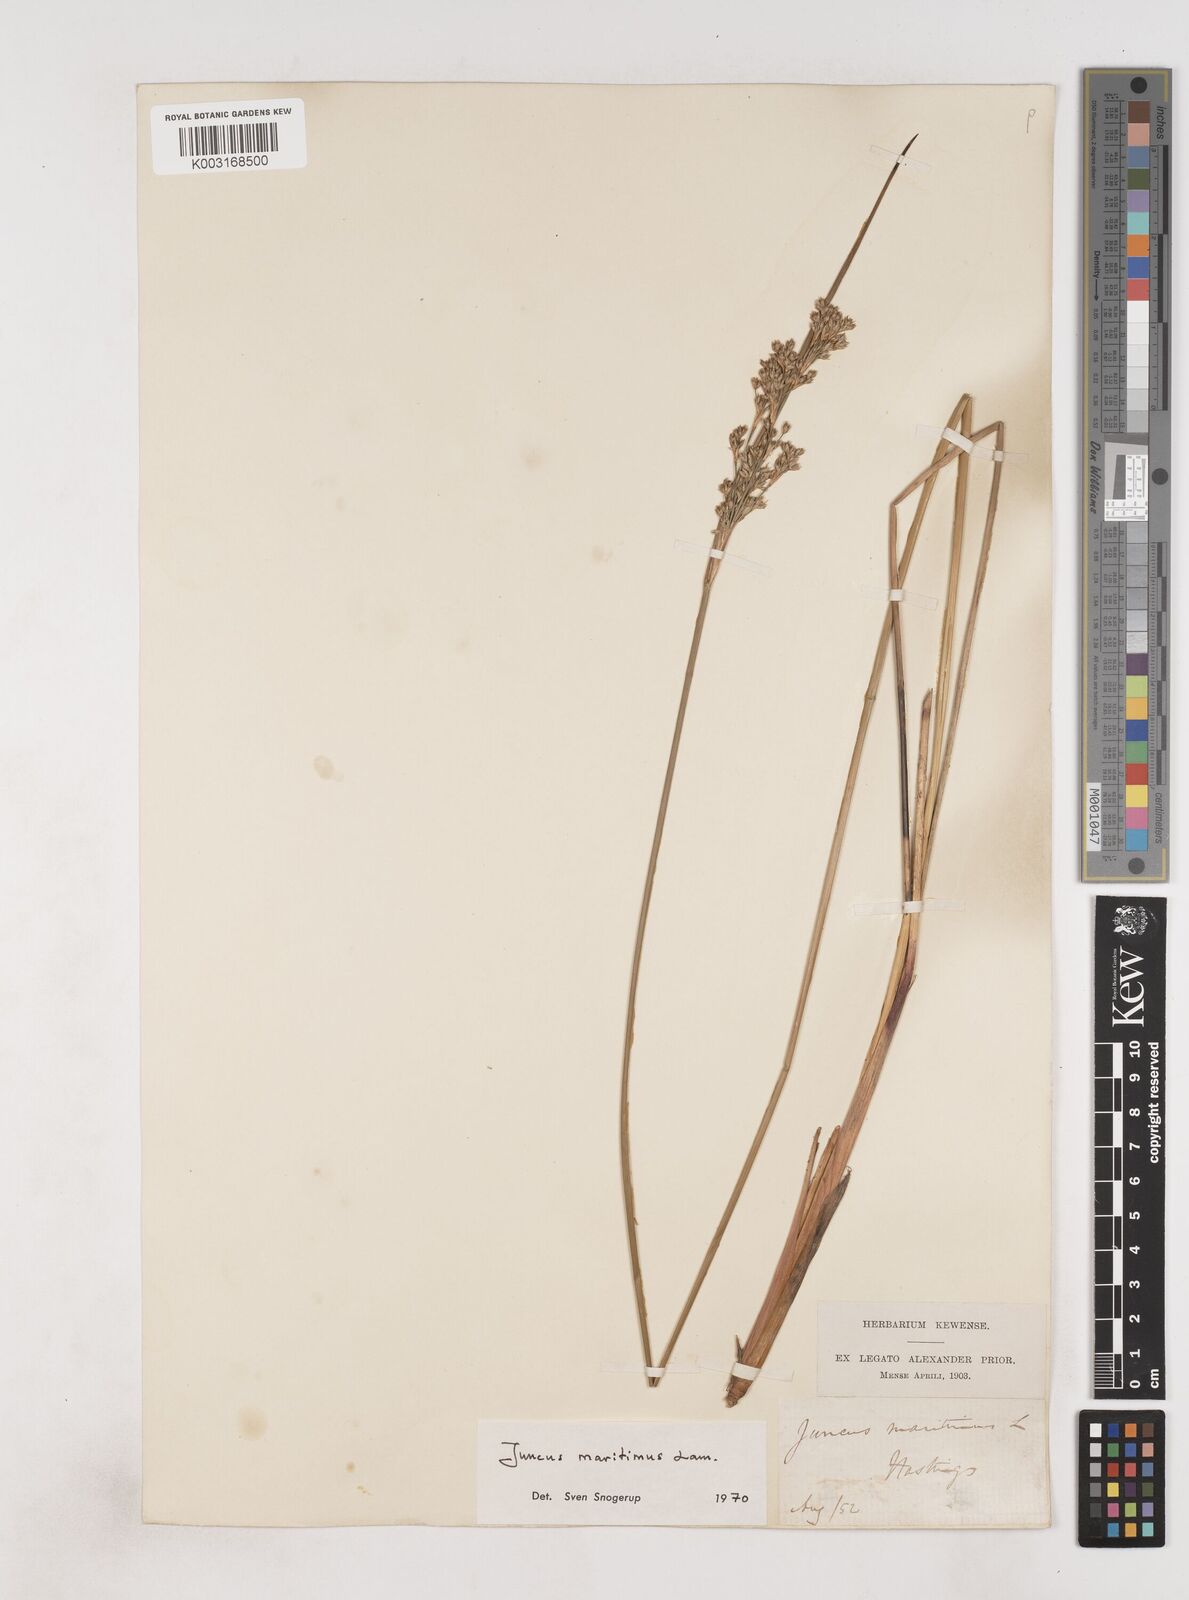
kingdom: Plantae
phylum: Tracheophyta
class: Liliopsida
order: Poales
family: Juncaceae
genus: Juncus
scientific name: Juncus maritimus
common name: Sea rush
